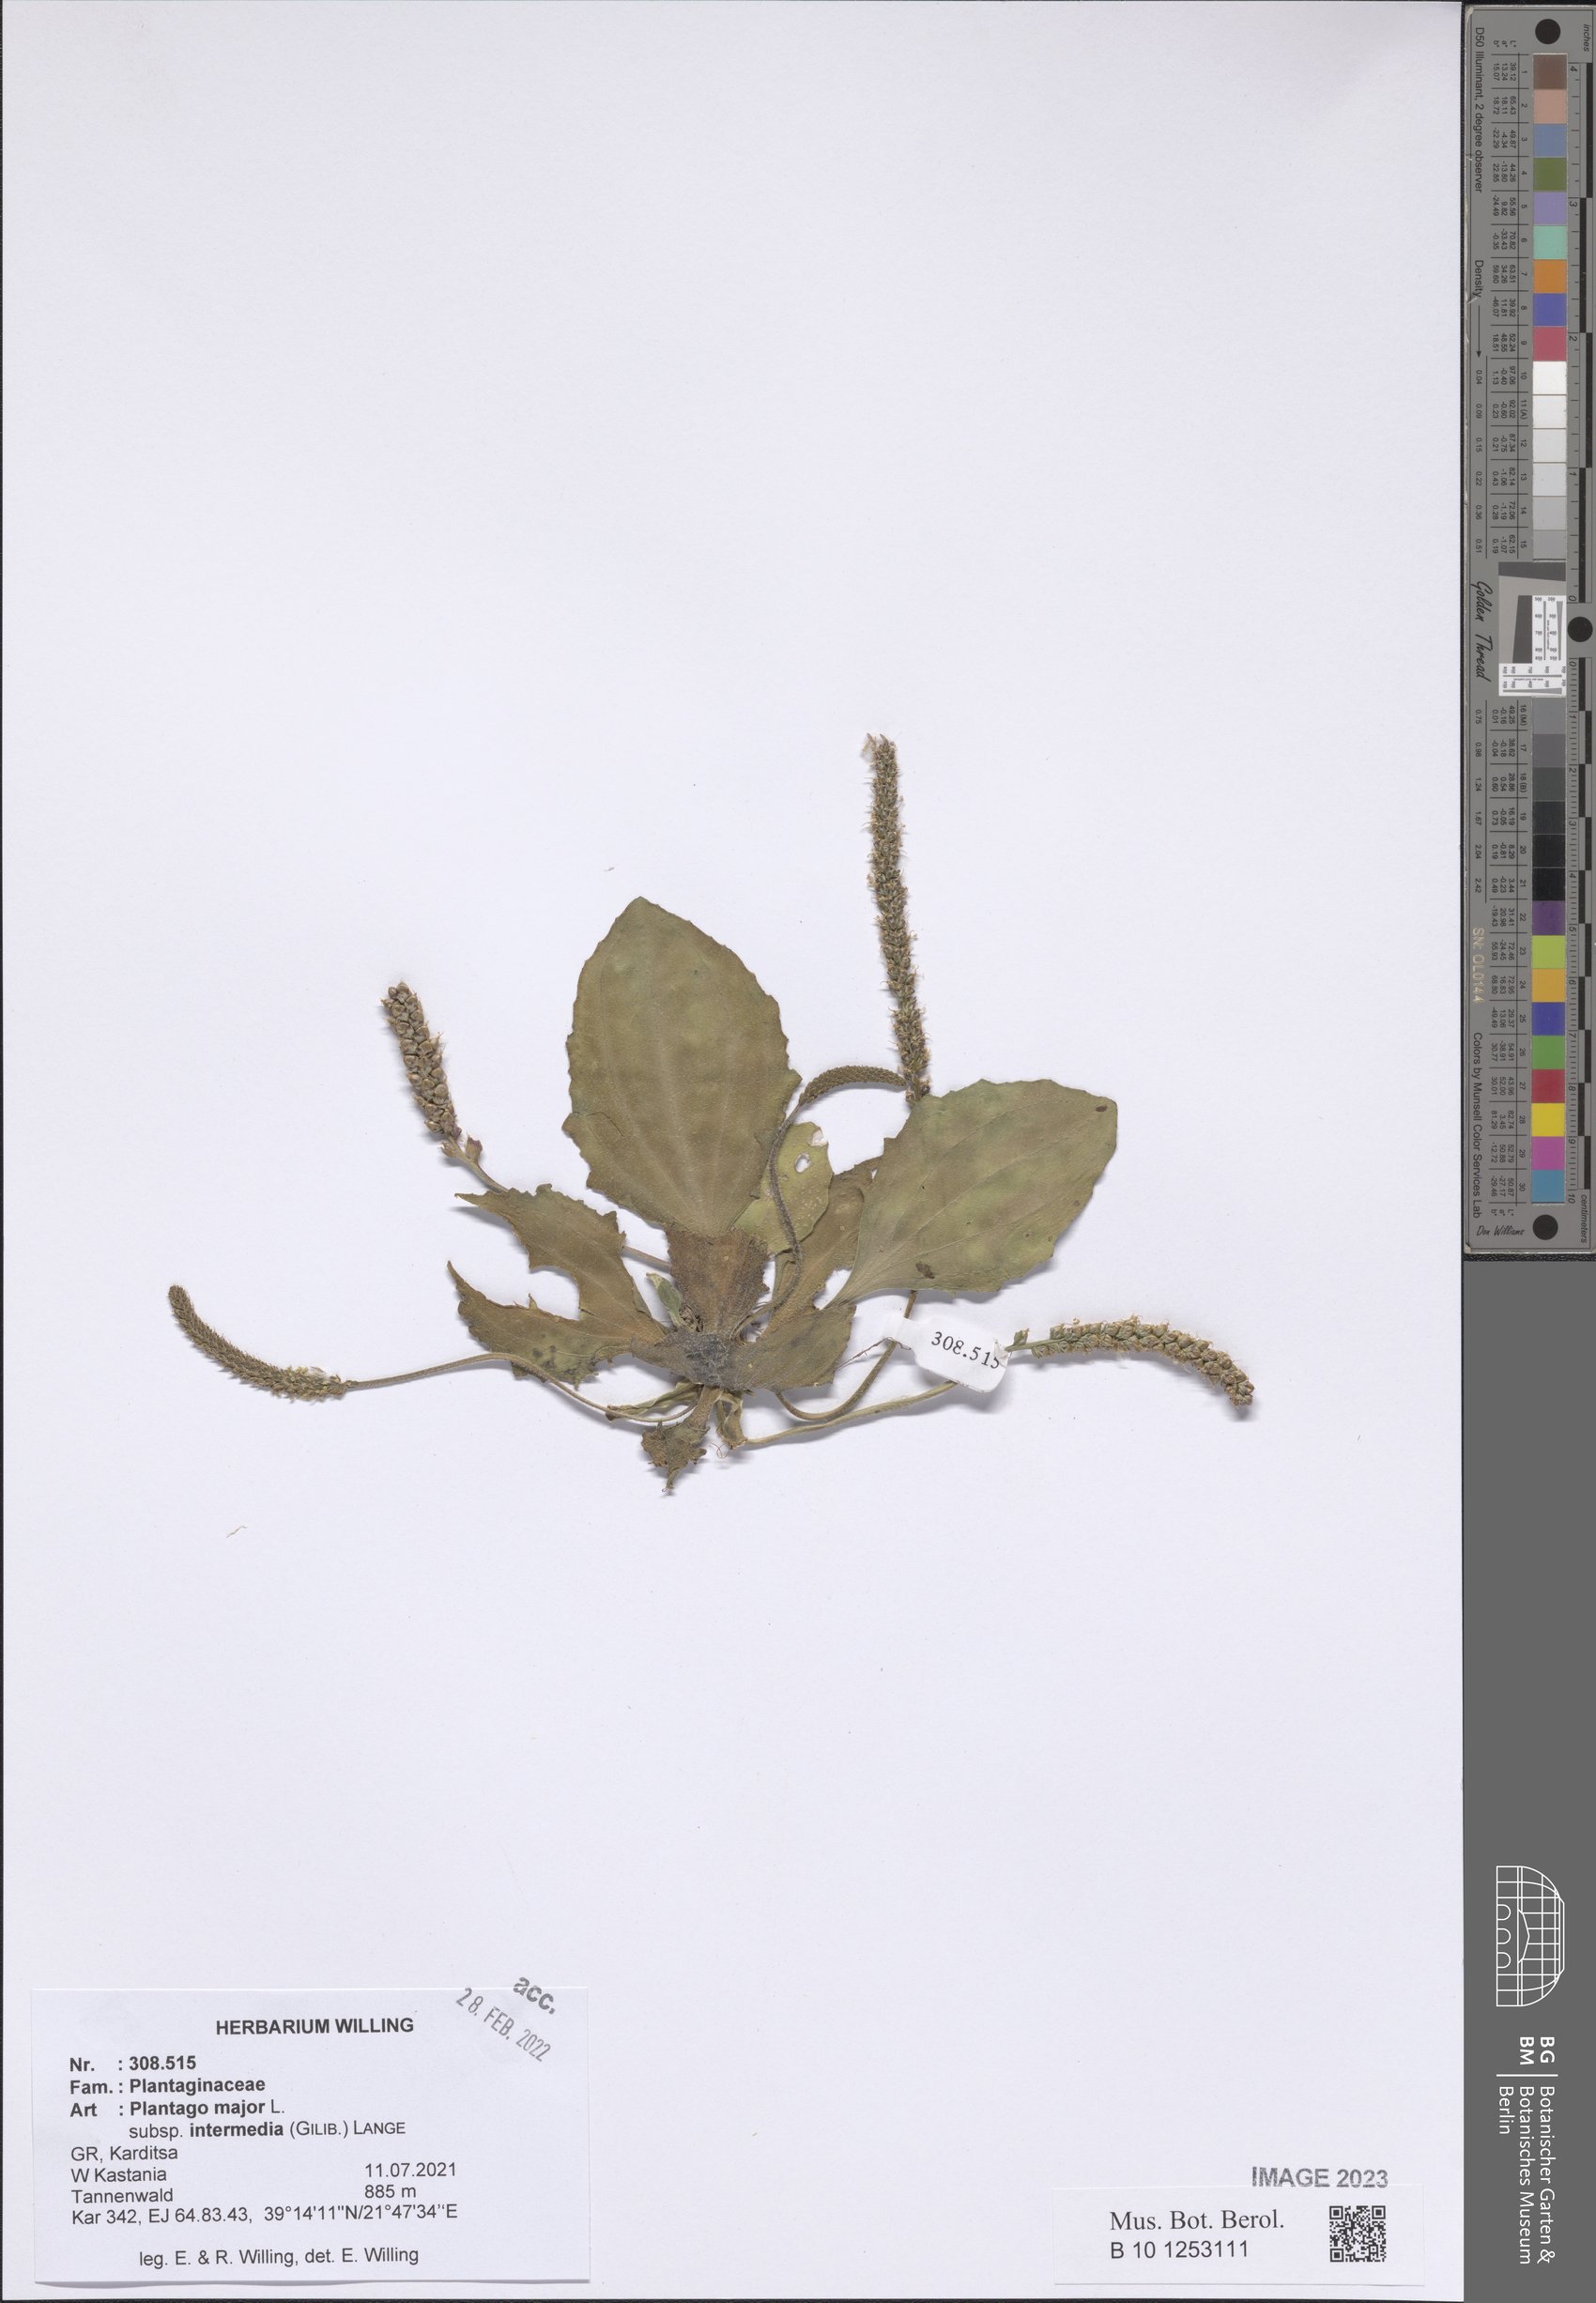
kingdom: Plantae
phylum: Tracheophyta
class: Magnoliopsida
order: Lamiales
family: Plantaginaceae
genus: Plantago
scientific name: Plantago uliginosa
